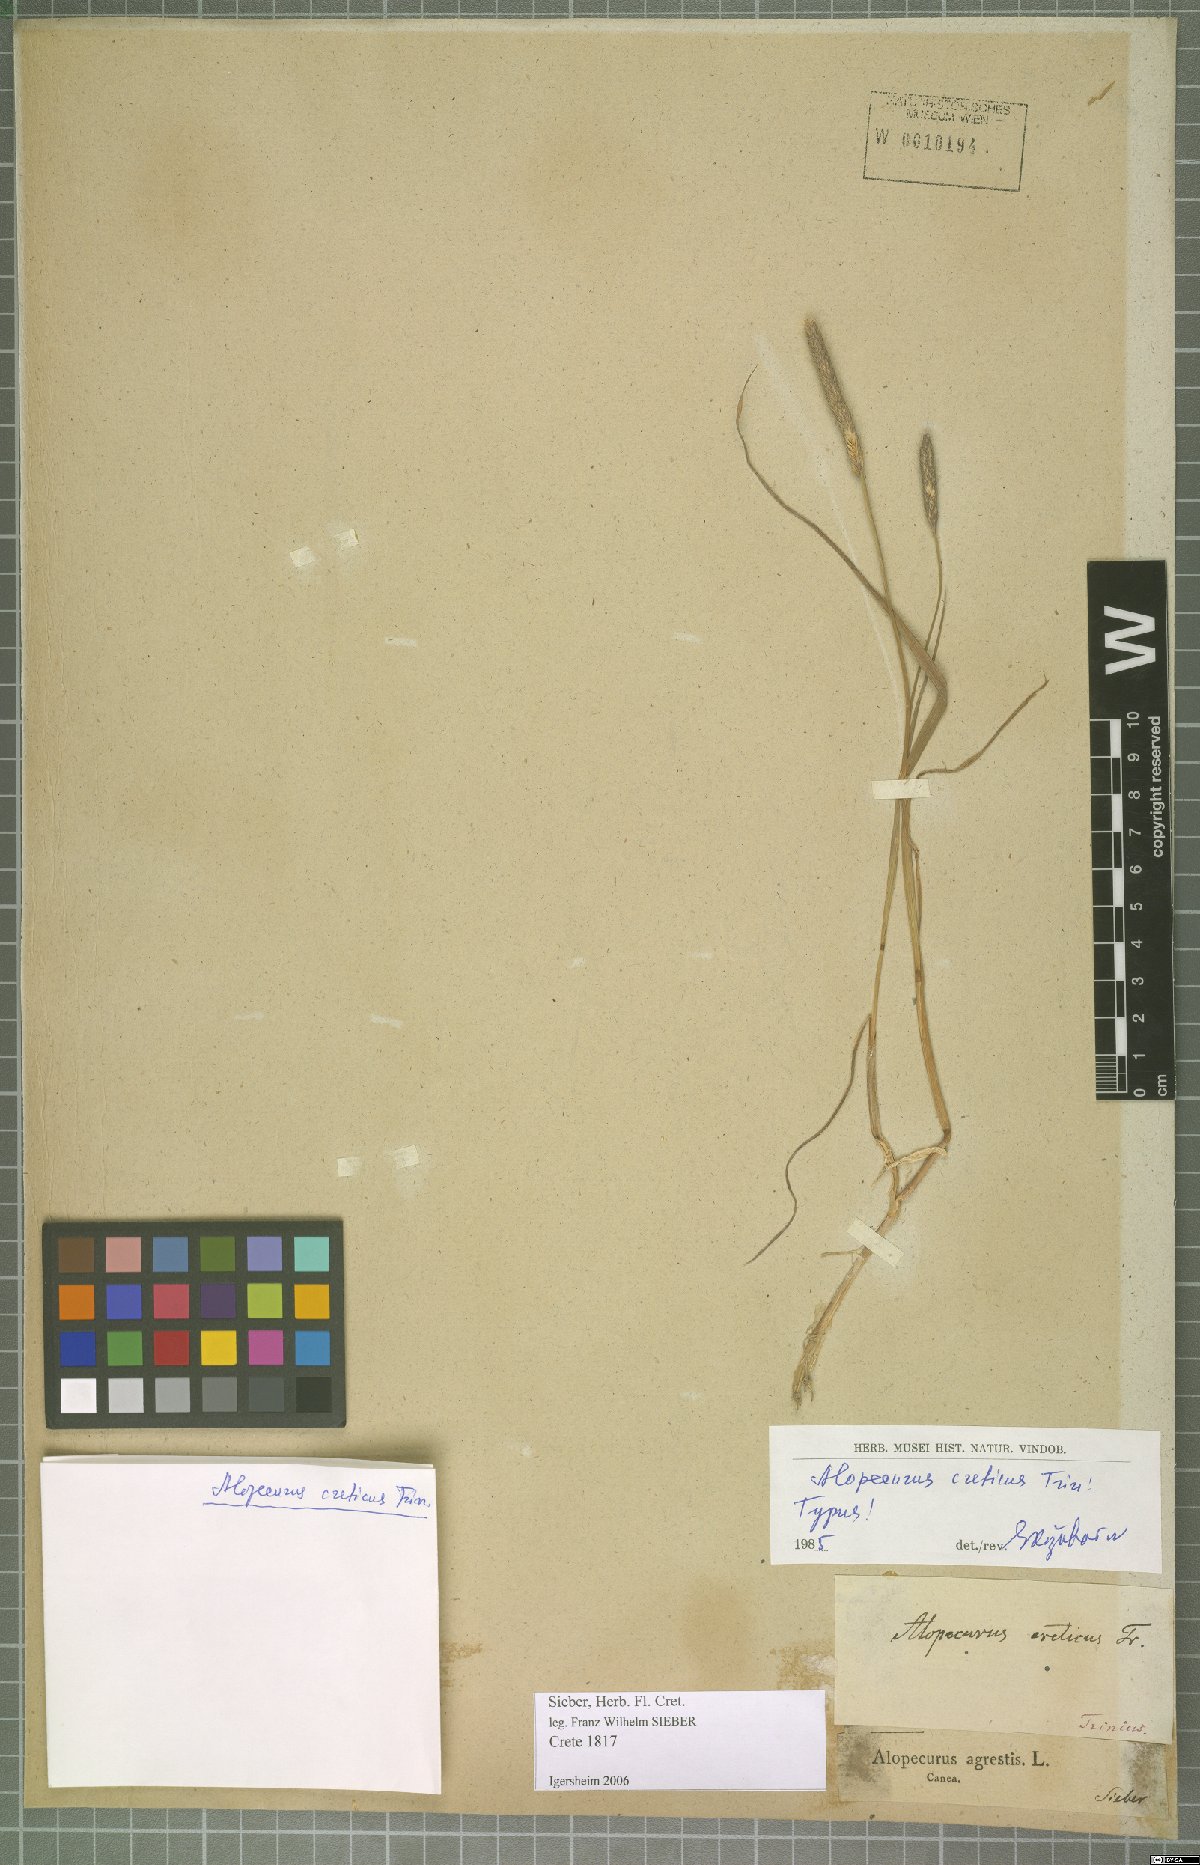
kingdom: Plantae
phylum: Tracheophyta
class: Liliopsida
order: Poales
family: Poaceae
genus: Alopecurus
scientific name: Alopecurus creticus
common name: Cretan meadow foxtail
